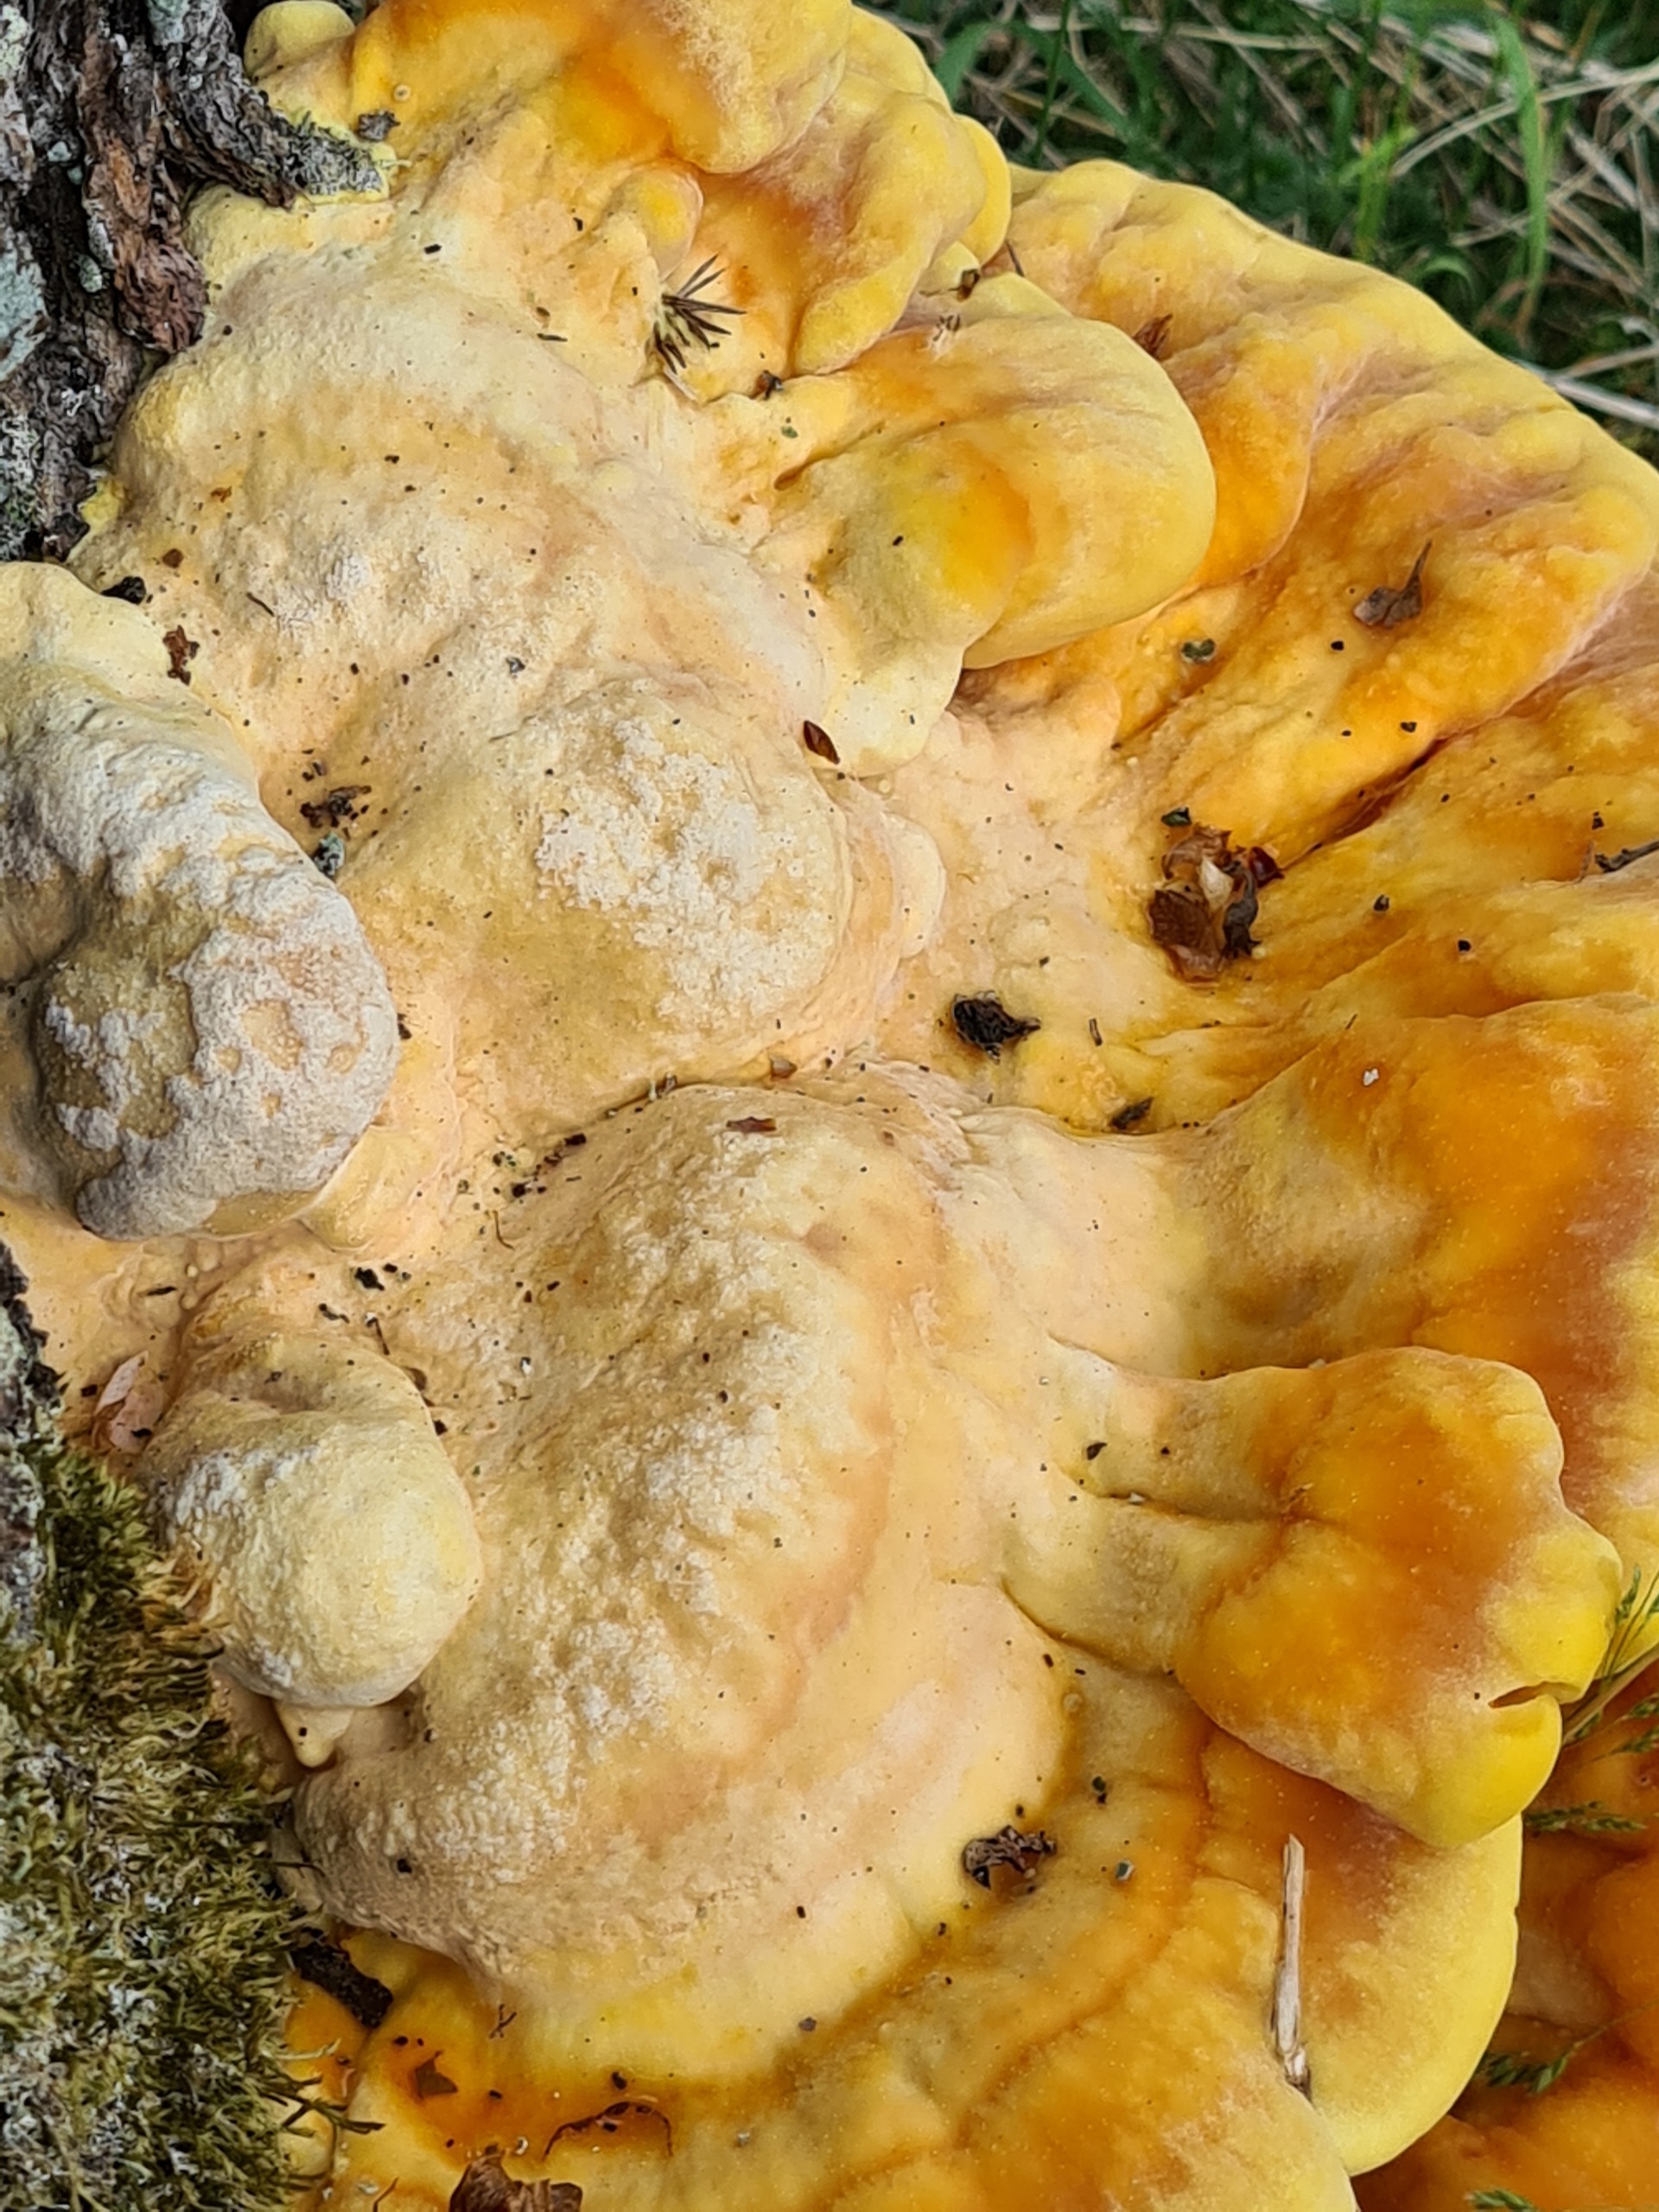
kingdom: Fungi
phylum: Basidiomycota
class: Agaricomycetes
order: Polyporales
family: Laetiporaceae
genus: Laetiporus
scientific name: Laetiporus sulphureus
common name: Svovlporesvamp
